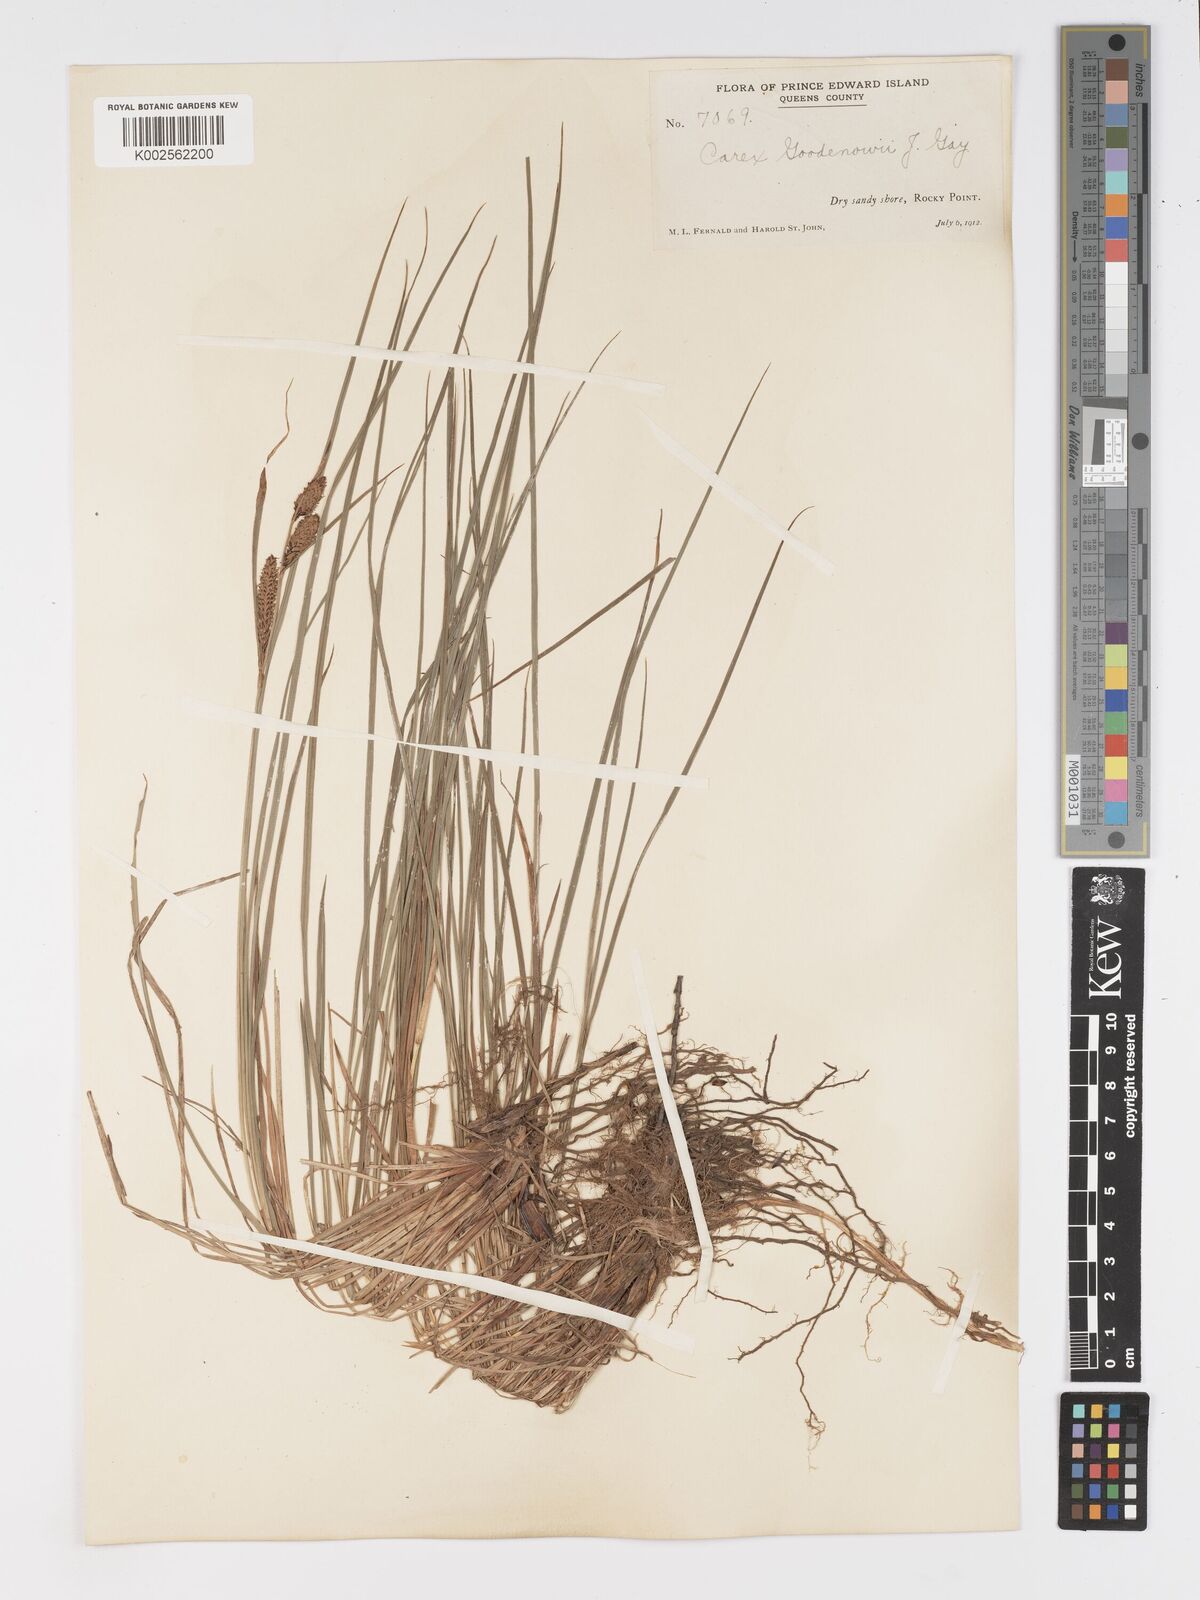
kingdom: Plantae
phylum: Tracheophyta
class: Liliopsida
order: Poales
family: Cyperaceae
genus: Carex
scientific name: Carex nigra
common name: Common sedge
